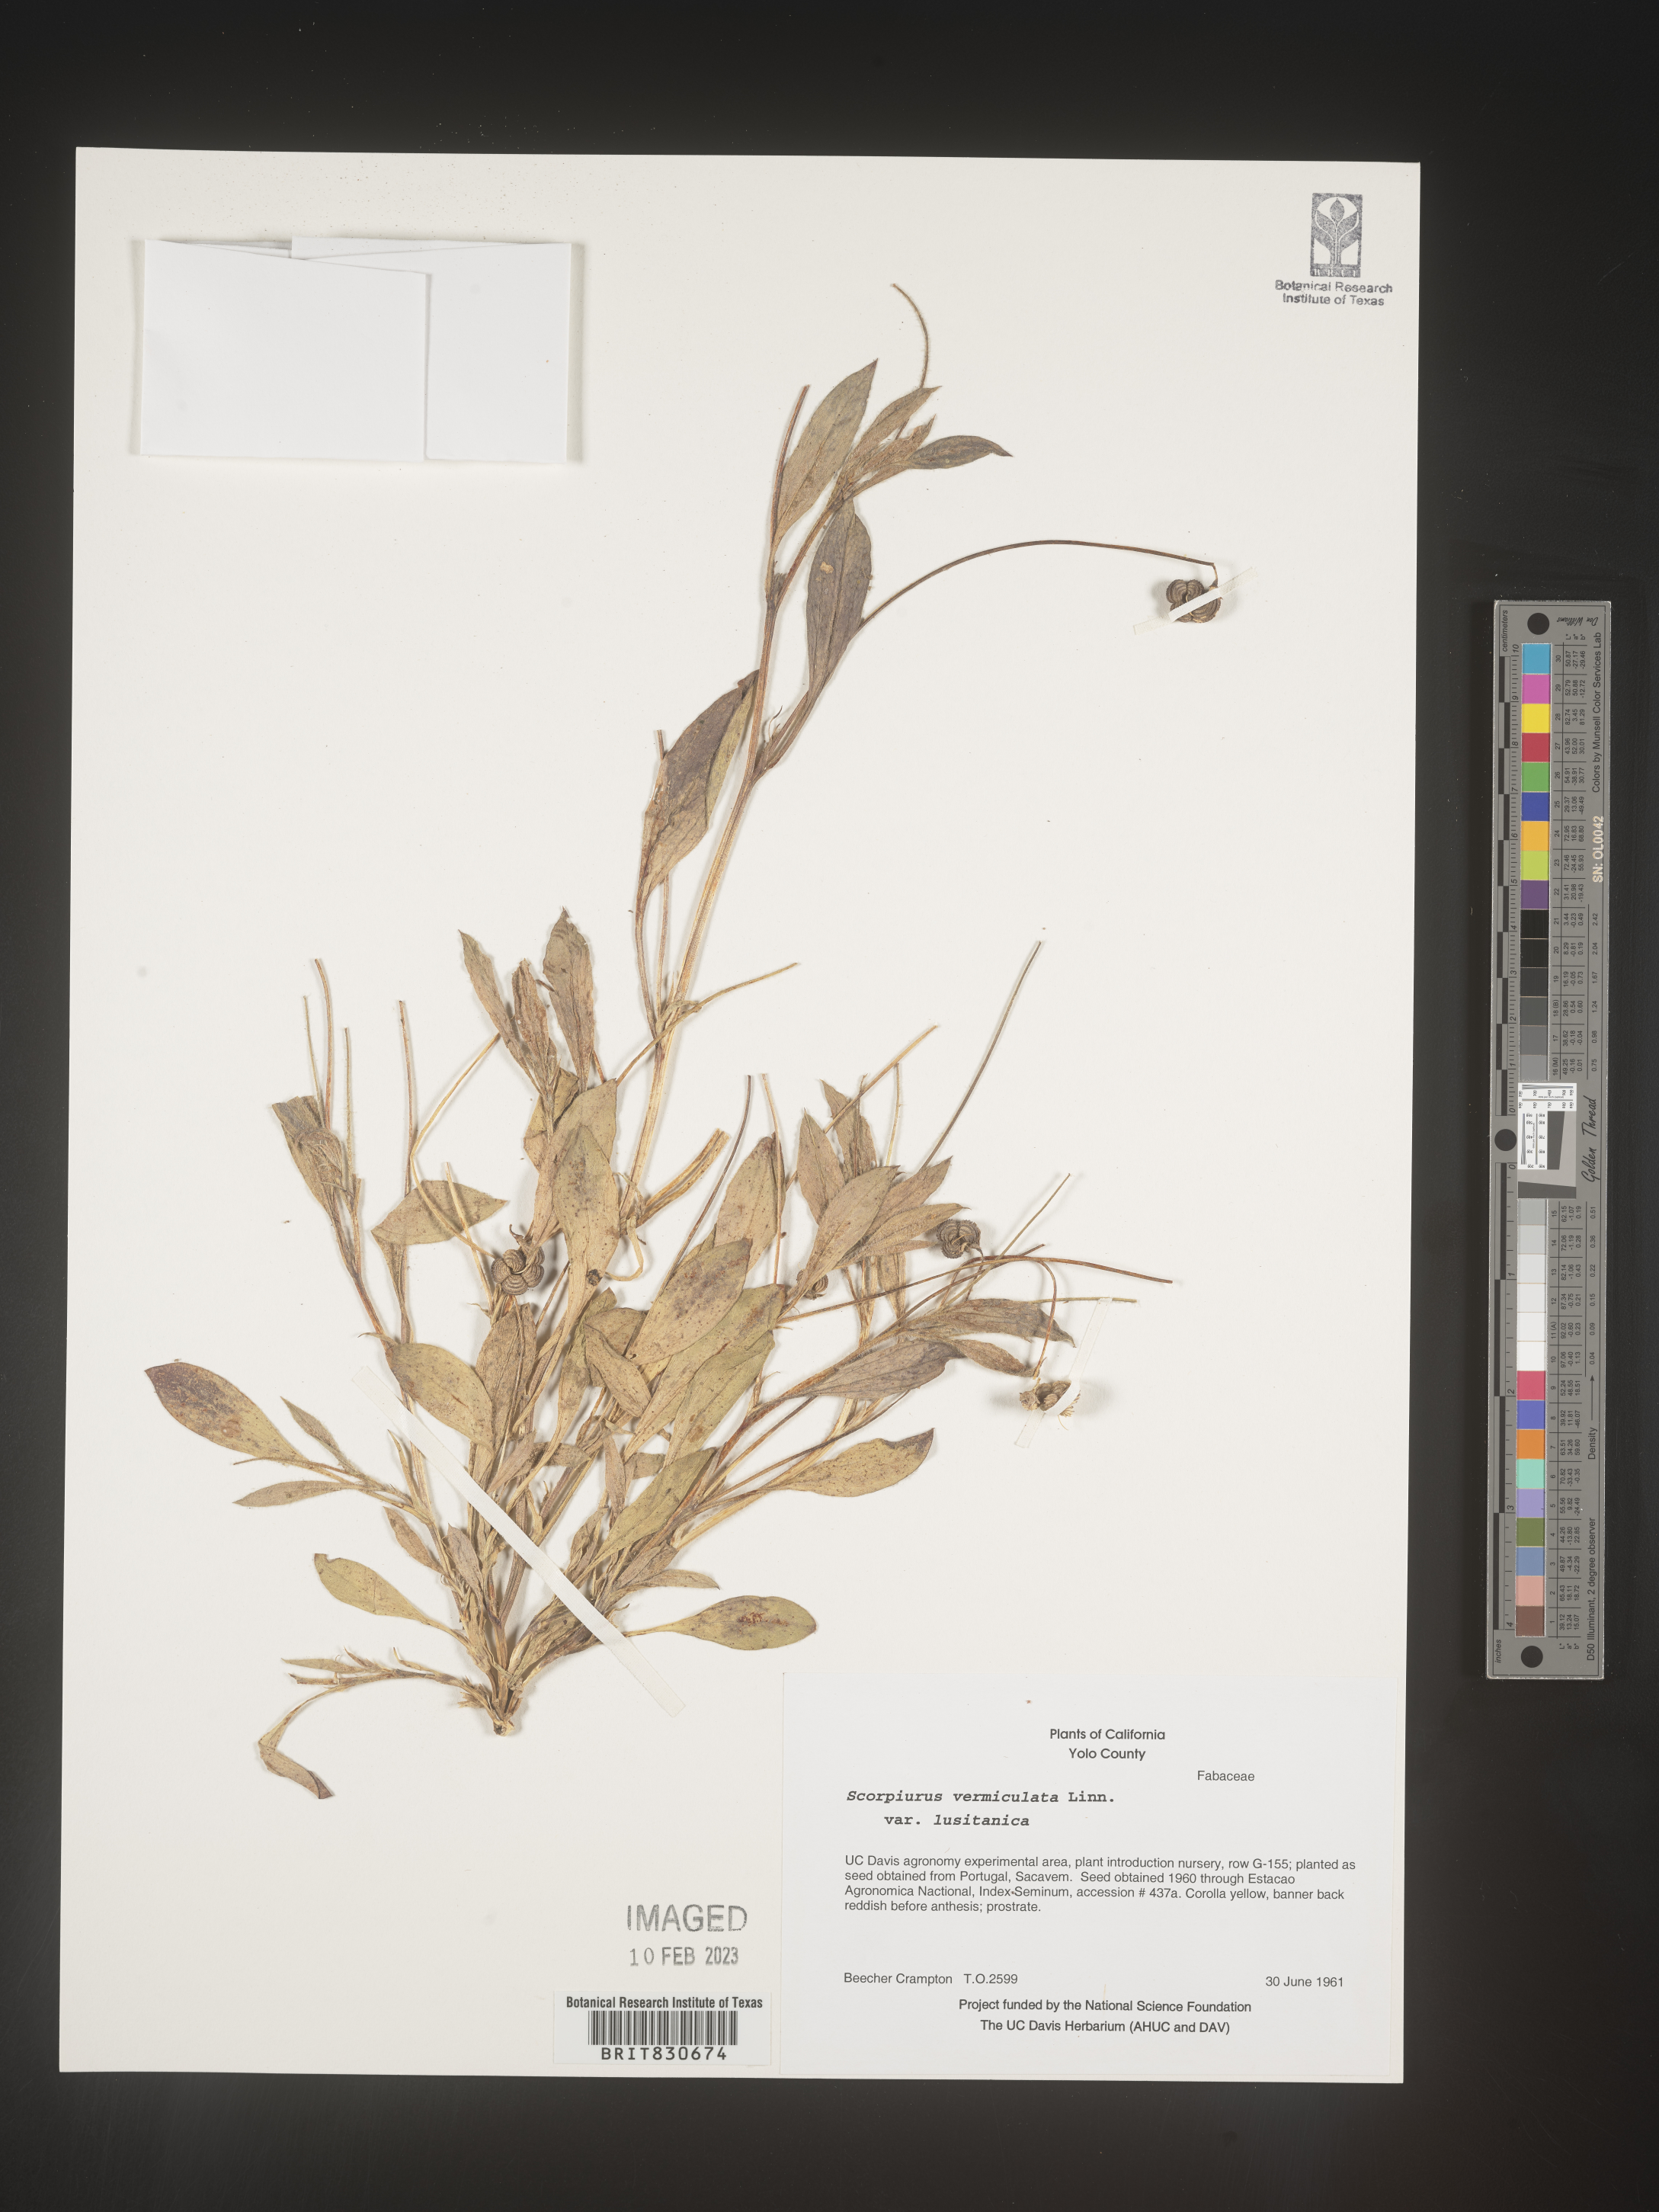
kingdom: Plantae
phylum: Tracheophyta
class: Magnoliopsida
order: Fabales
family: Fabaceae
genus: Scorpiurus
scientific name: Scorpiurus vermiculatus
